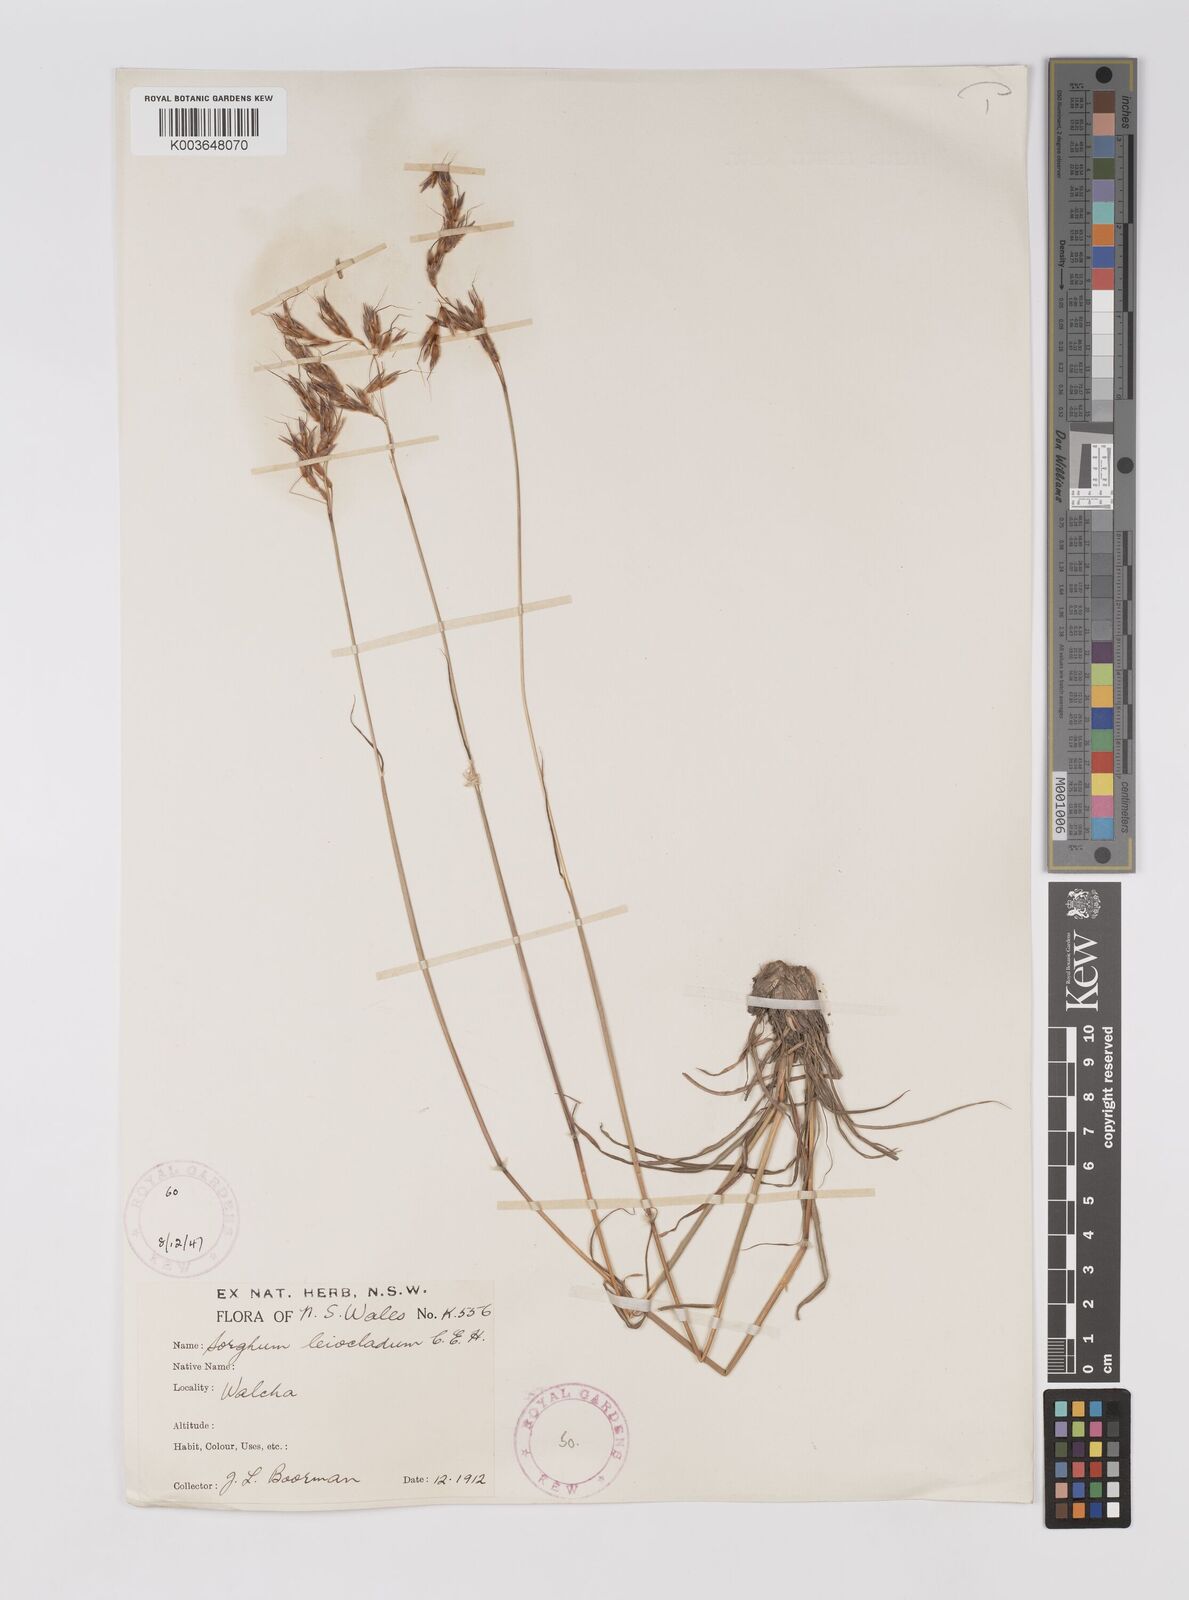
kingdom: Plantae
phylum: Tracheophyta
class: Liliopsida
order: Poales
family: Poaceae
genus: Sarga
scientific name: Sarga leioclada
